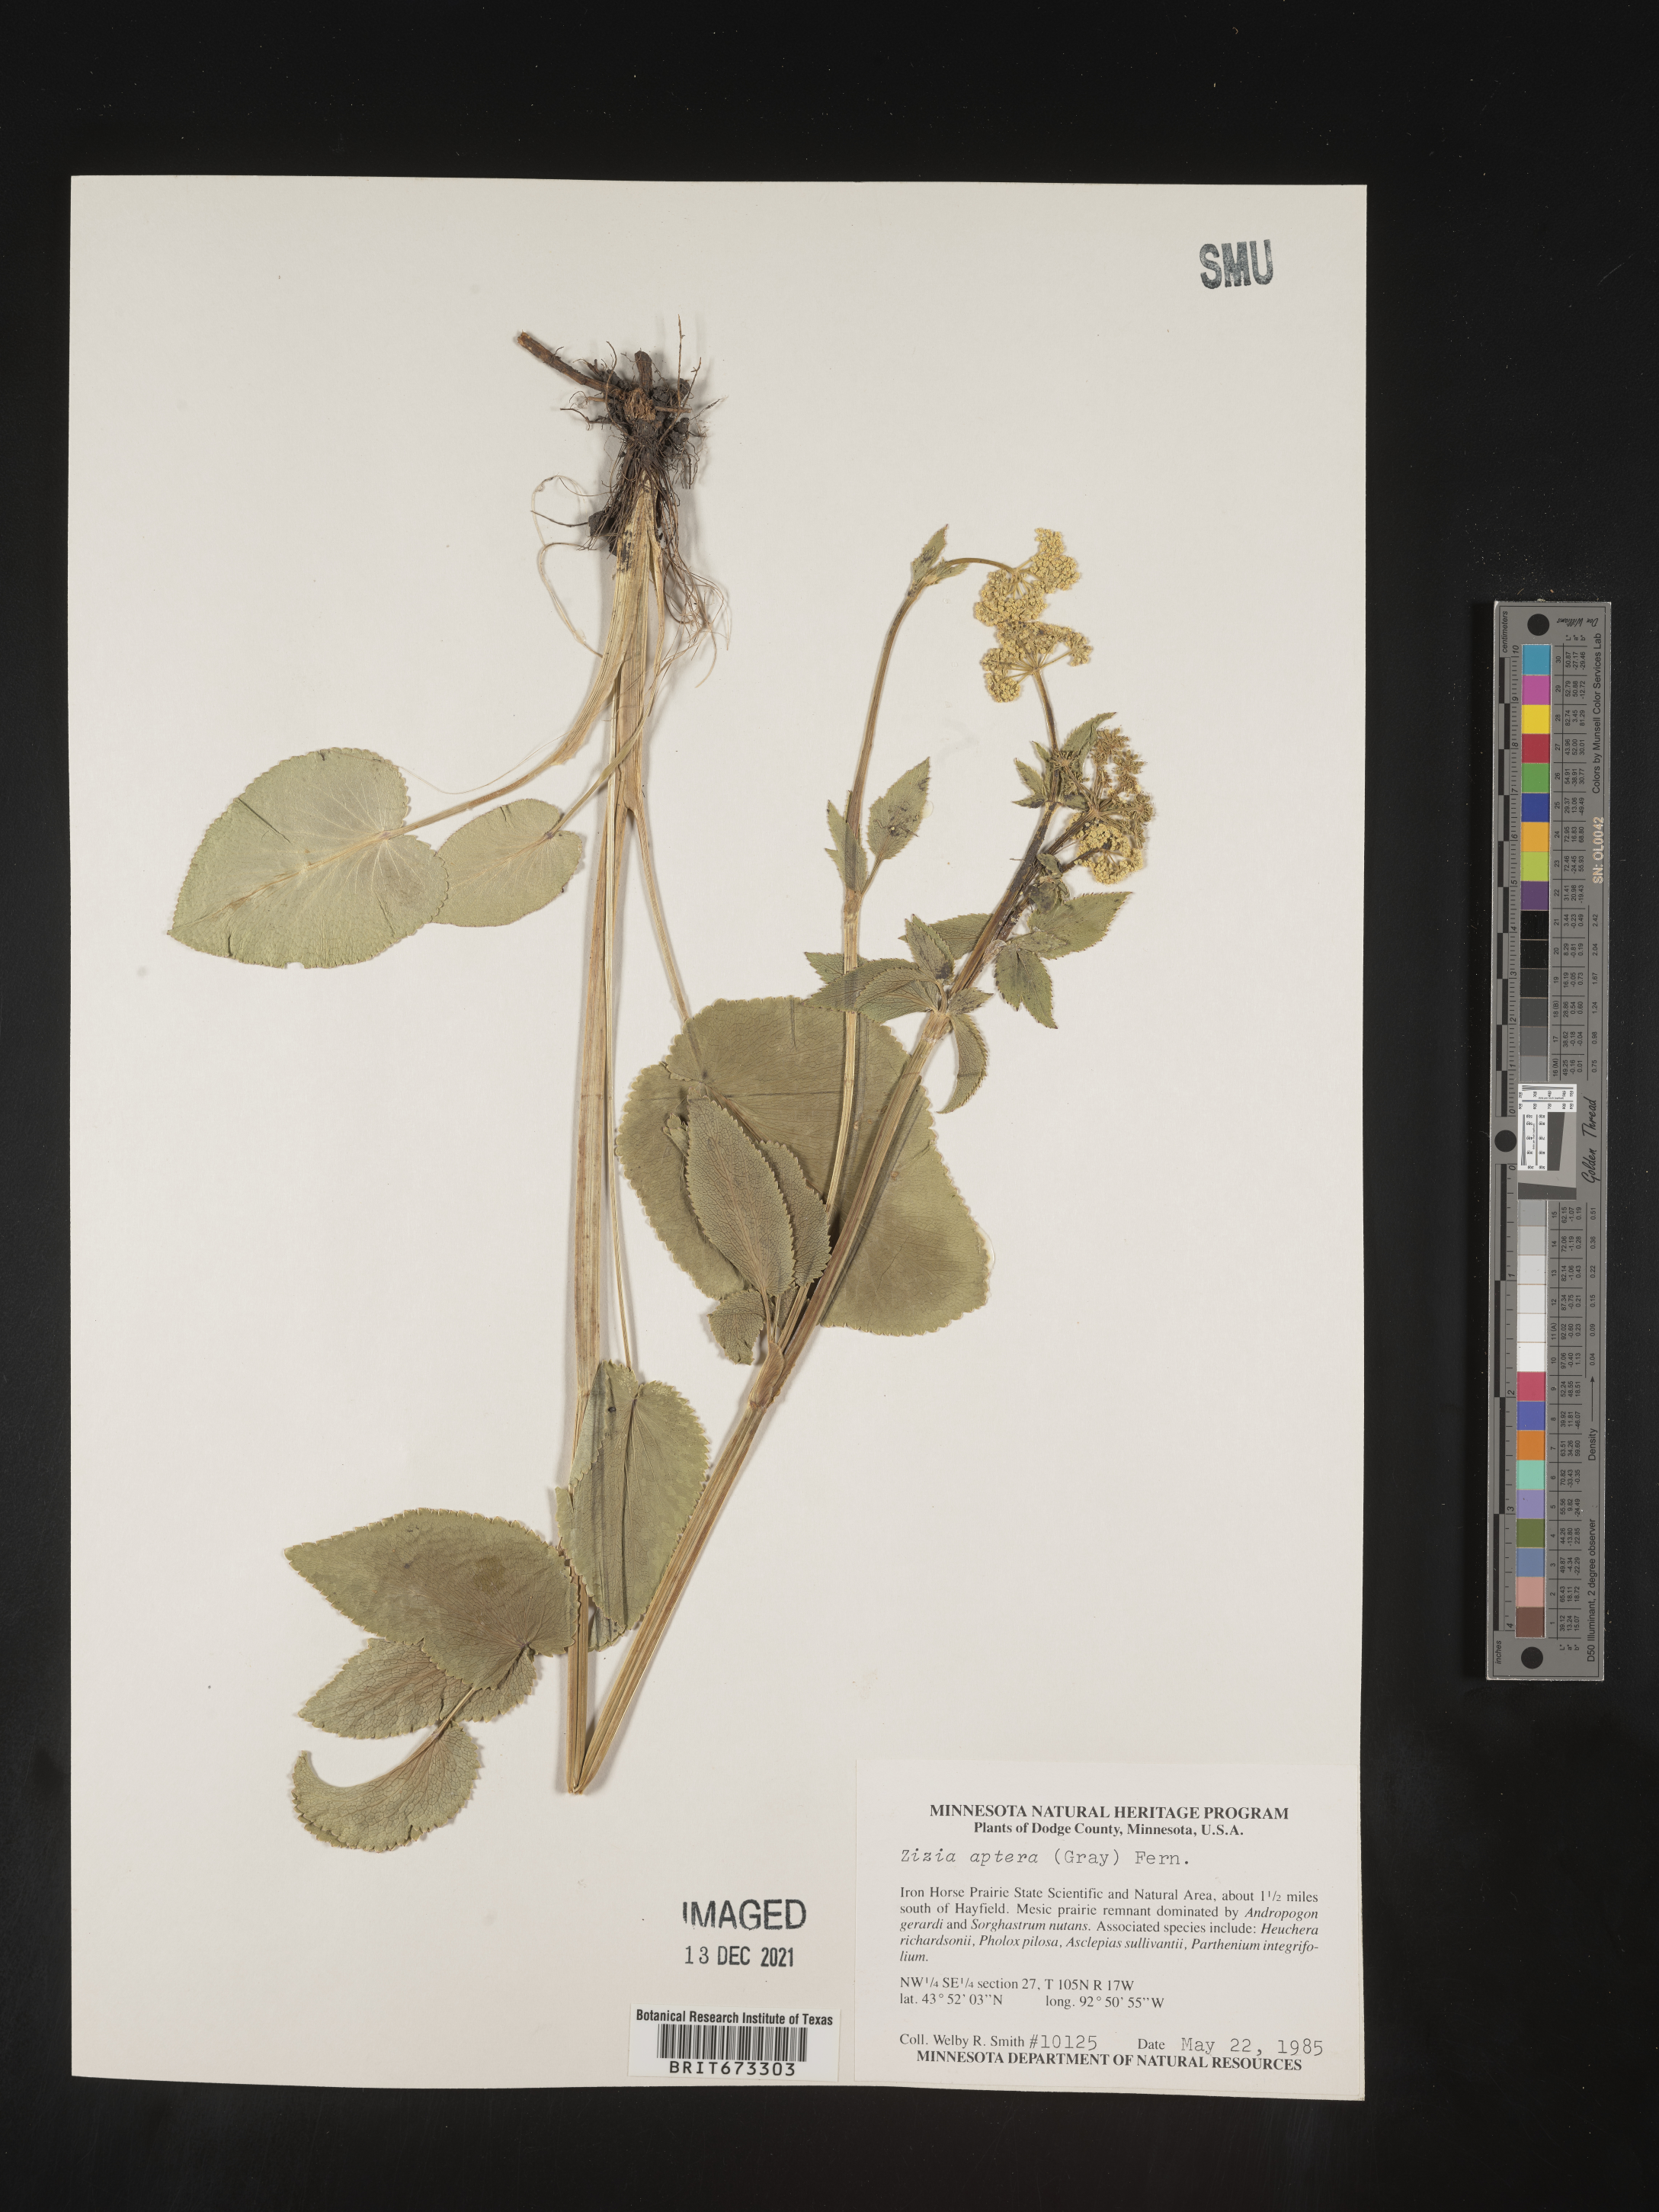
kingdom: Plantae
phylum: Tracheophyta
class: Magnoliopsida
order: Apiales
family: Apiaceae
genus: Zizia
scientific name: Zizia aptera
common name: Heart-leaved alexanders
